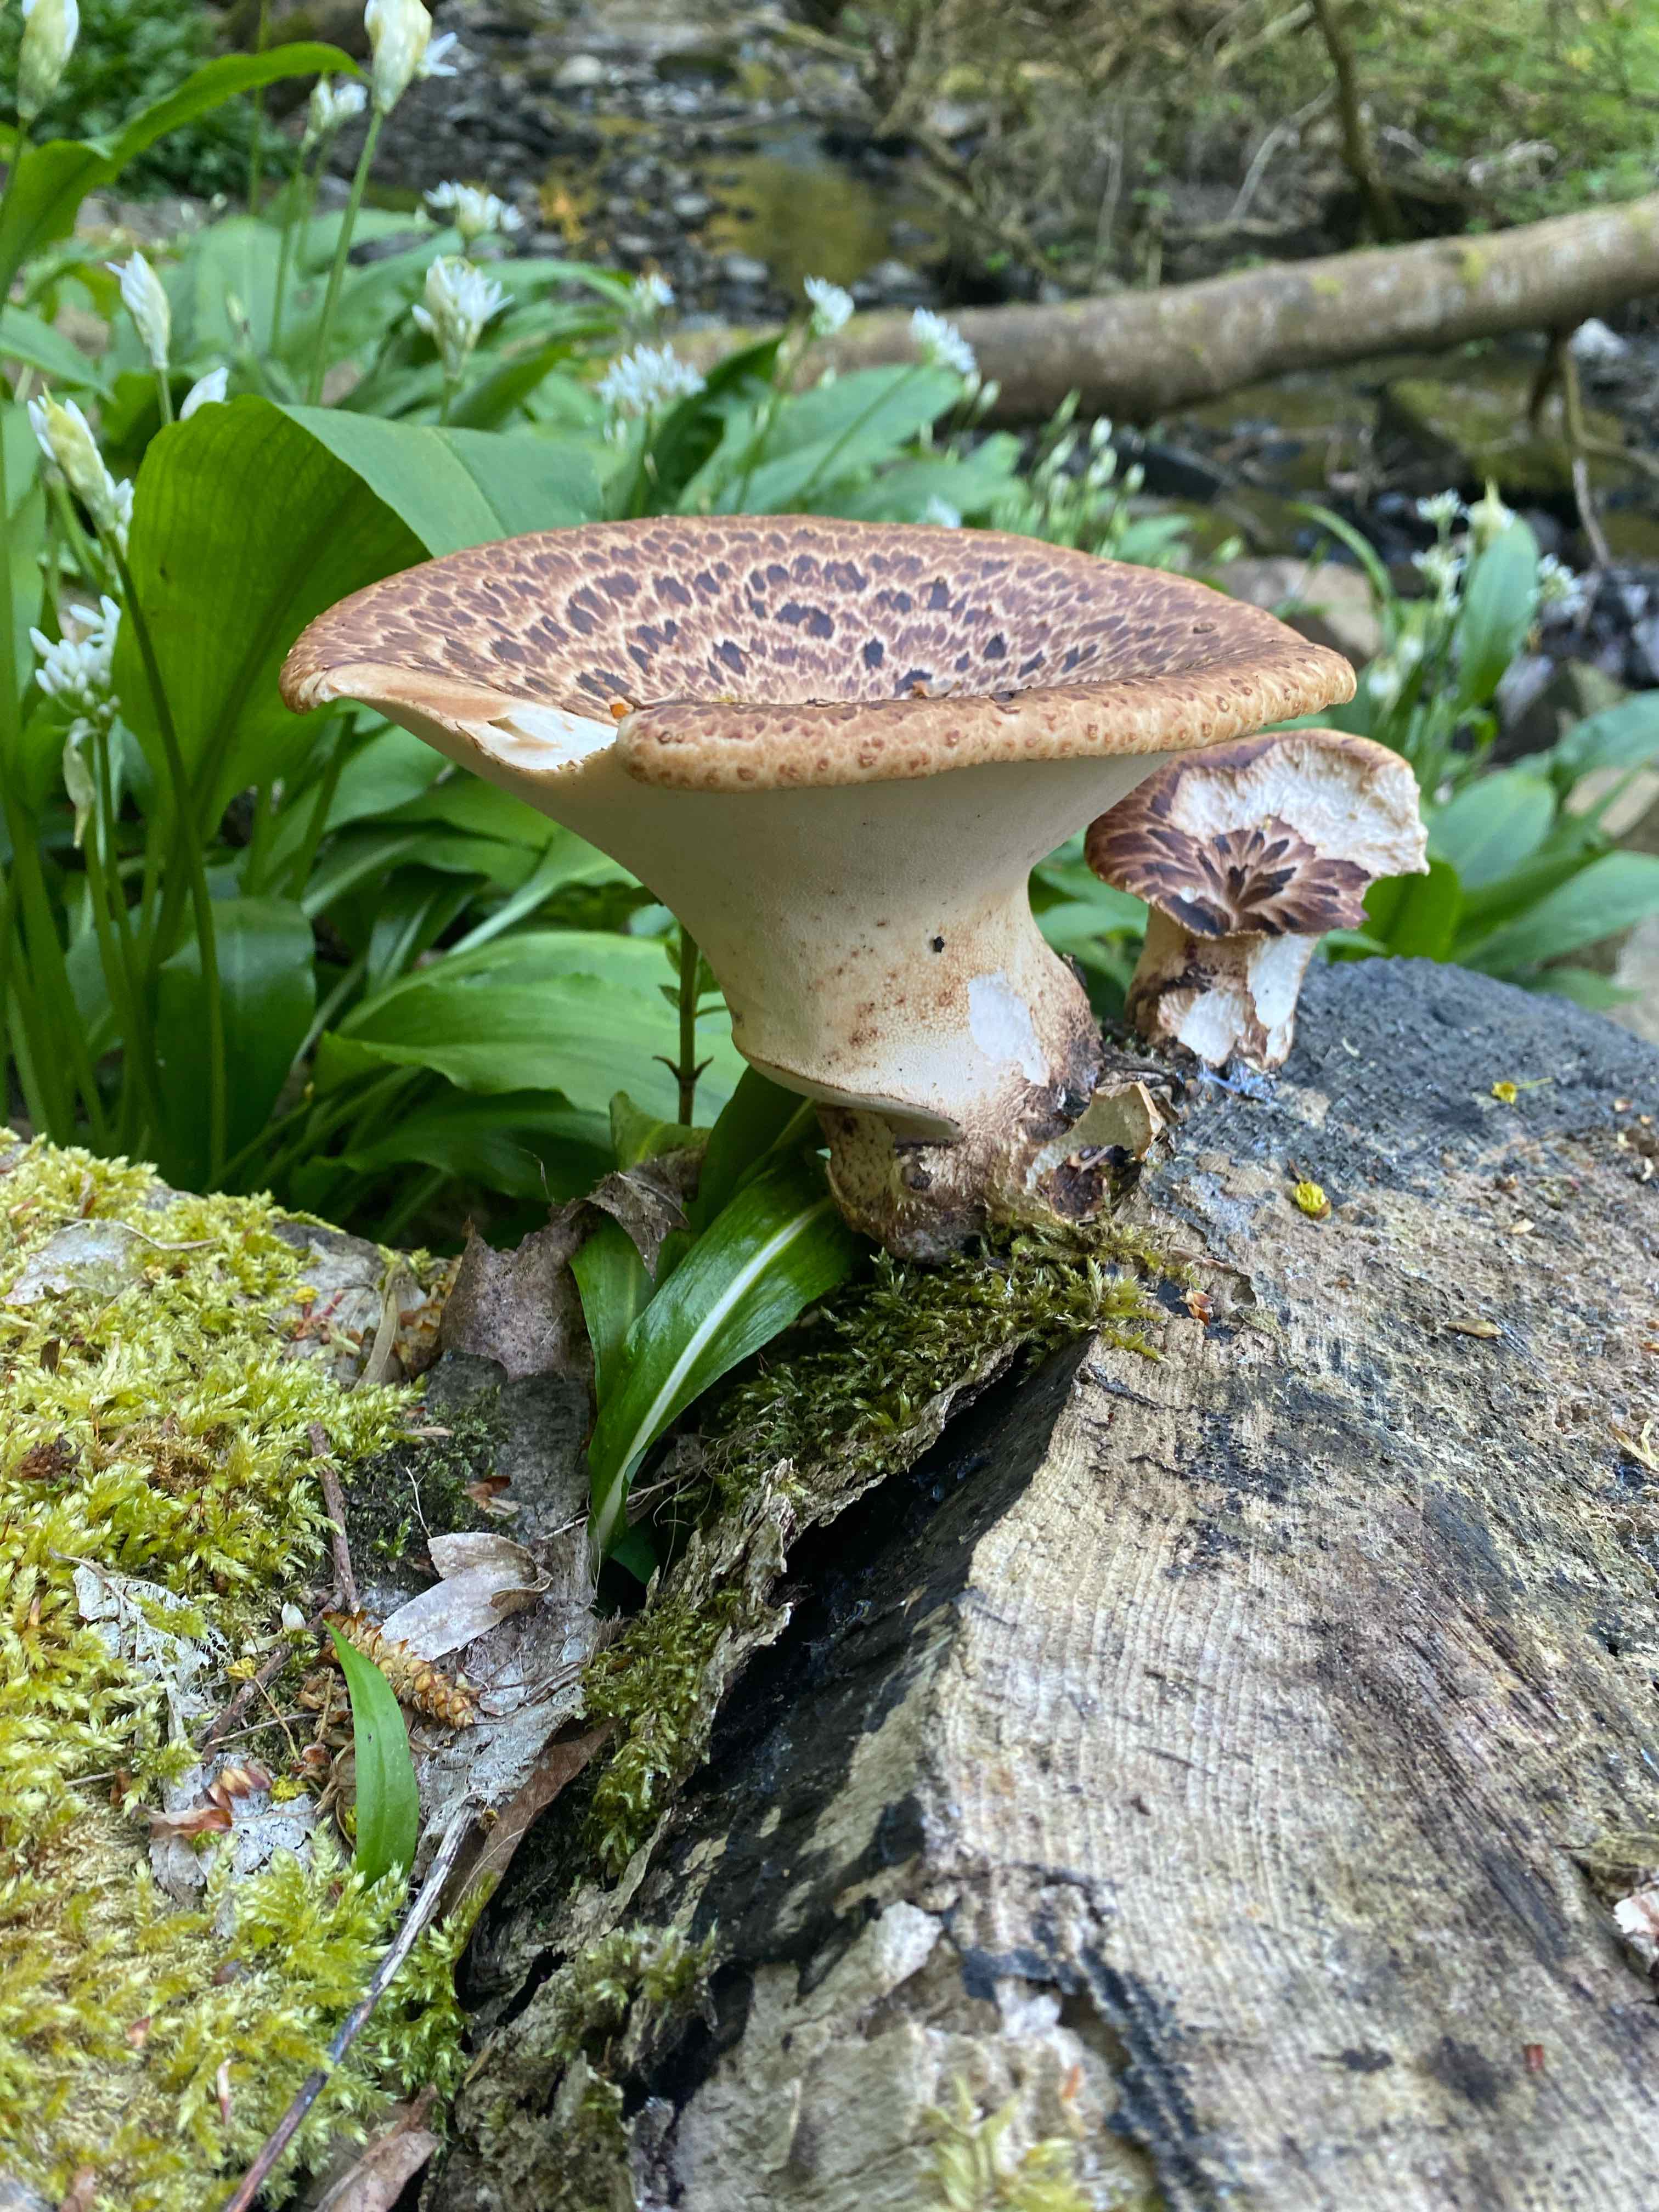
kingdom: Fungi
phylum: Basidiomycota
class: Agaricomycetes
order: Polyporales
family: Polyporaceae
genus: Cerioporus
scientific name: Cerioporus squamosus
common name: skællet stilkporesvamp
